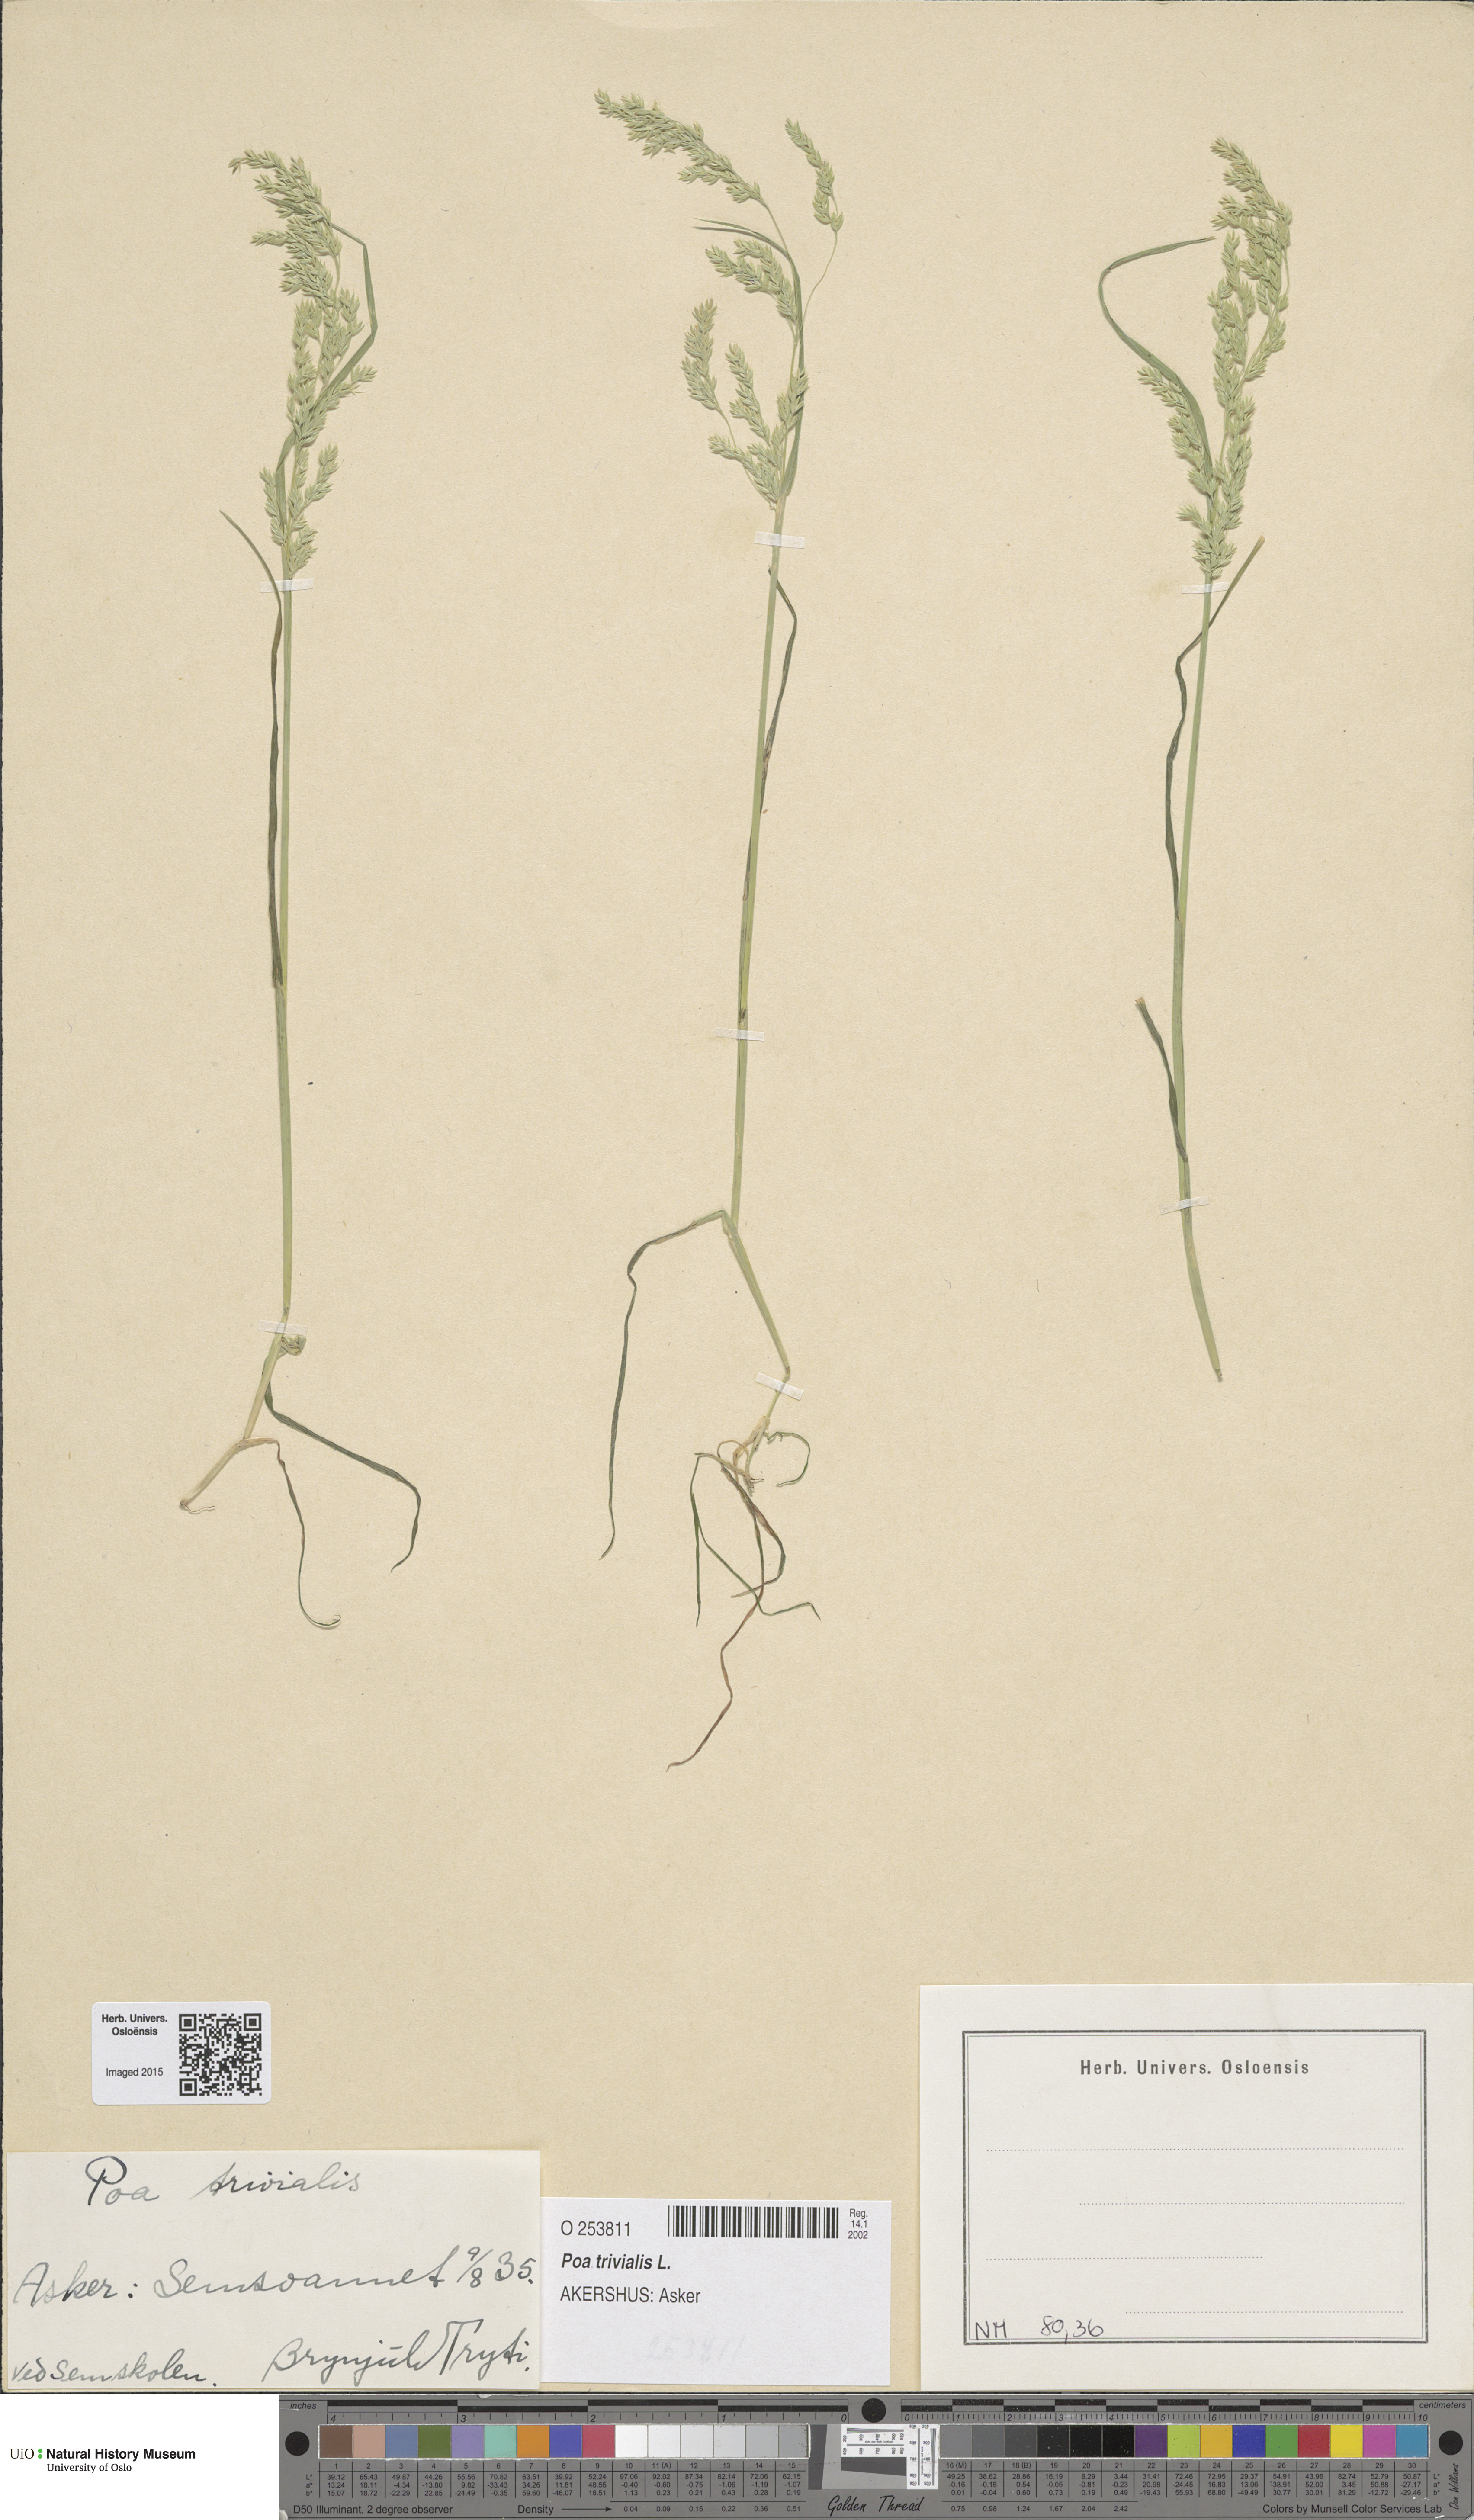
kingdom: Plantae
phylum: Tracheophyta
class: Liliopsida
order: Poales
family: Poaceae
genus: Poa
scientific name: Poa trivialis
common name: Rough bluegrass
